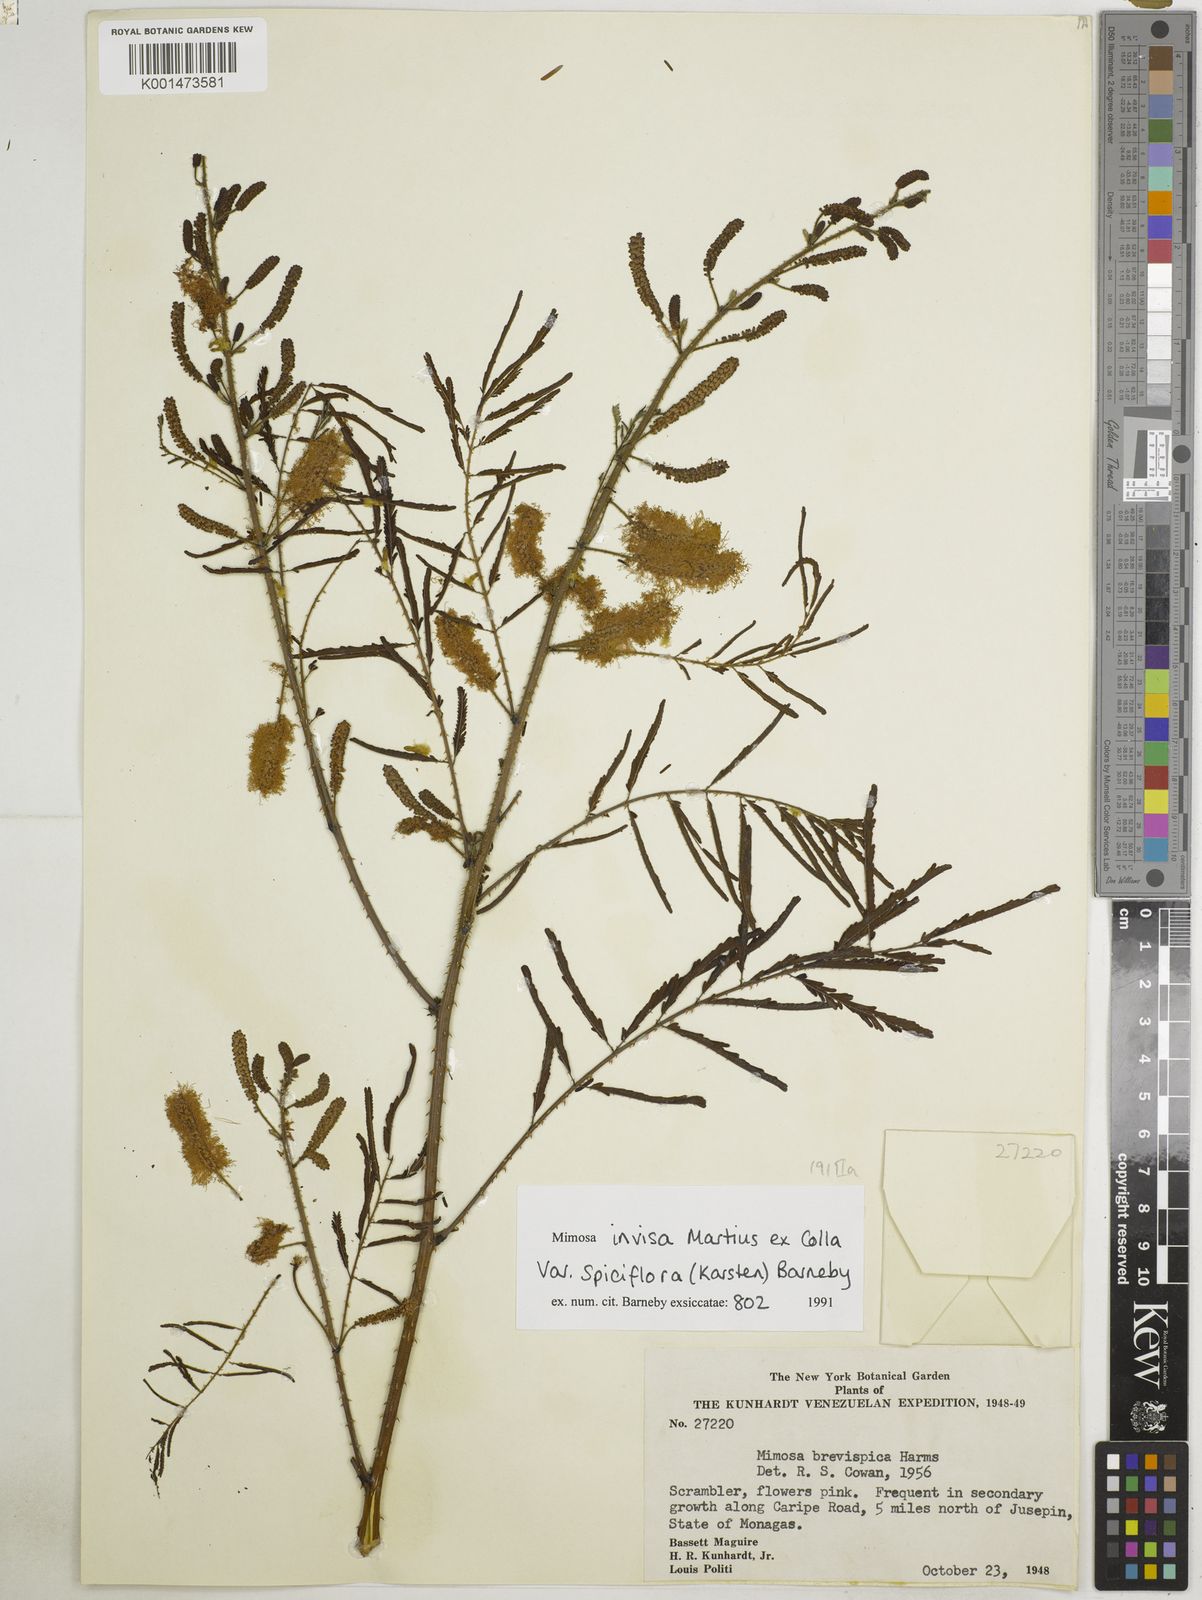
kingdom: Plantae
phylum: Tracheophyta
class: Magnoliopsida
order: Fabales
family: Fabaceae
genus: Mimosa
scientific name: Mimosa invisa
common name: Creeping sensitive-plant
